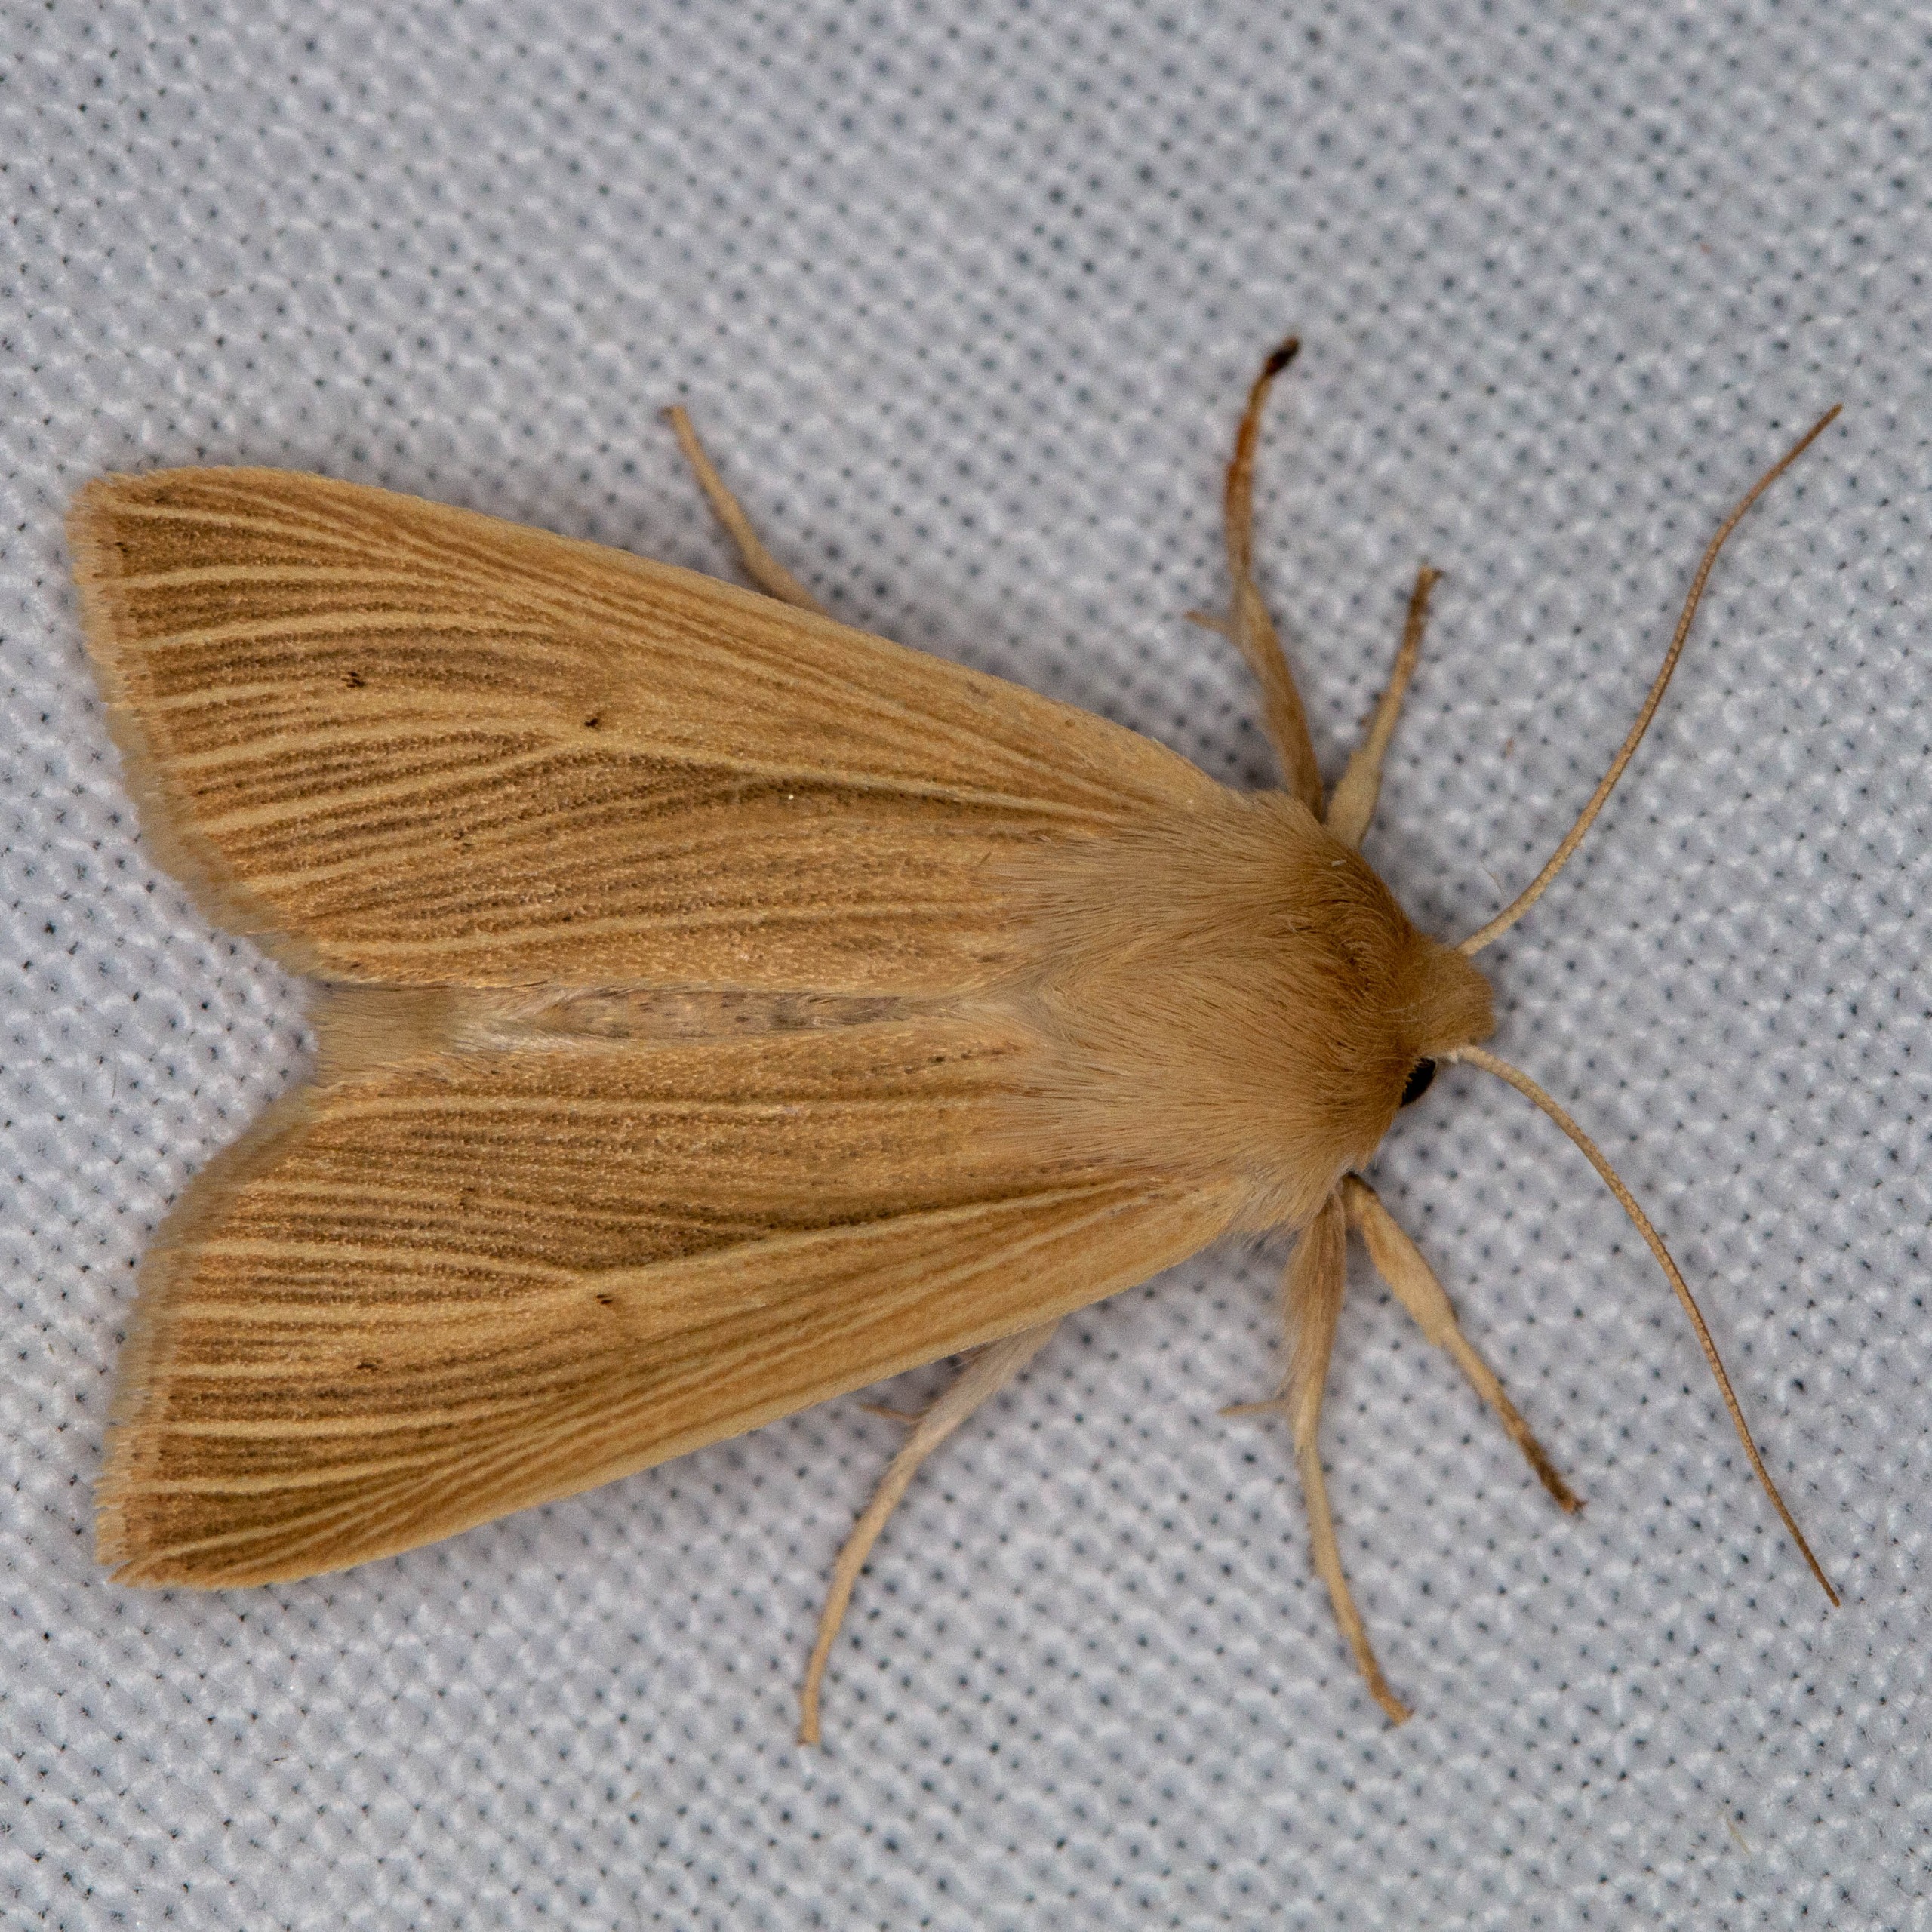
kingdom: Animalia
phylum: Arthropoda
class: Insecta
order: Lepidoptera
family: Noctuidae
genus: Mythimna
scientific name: Mythimna pallens
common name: Halmugle
